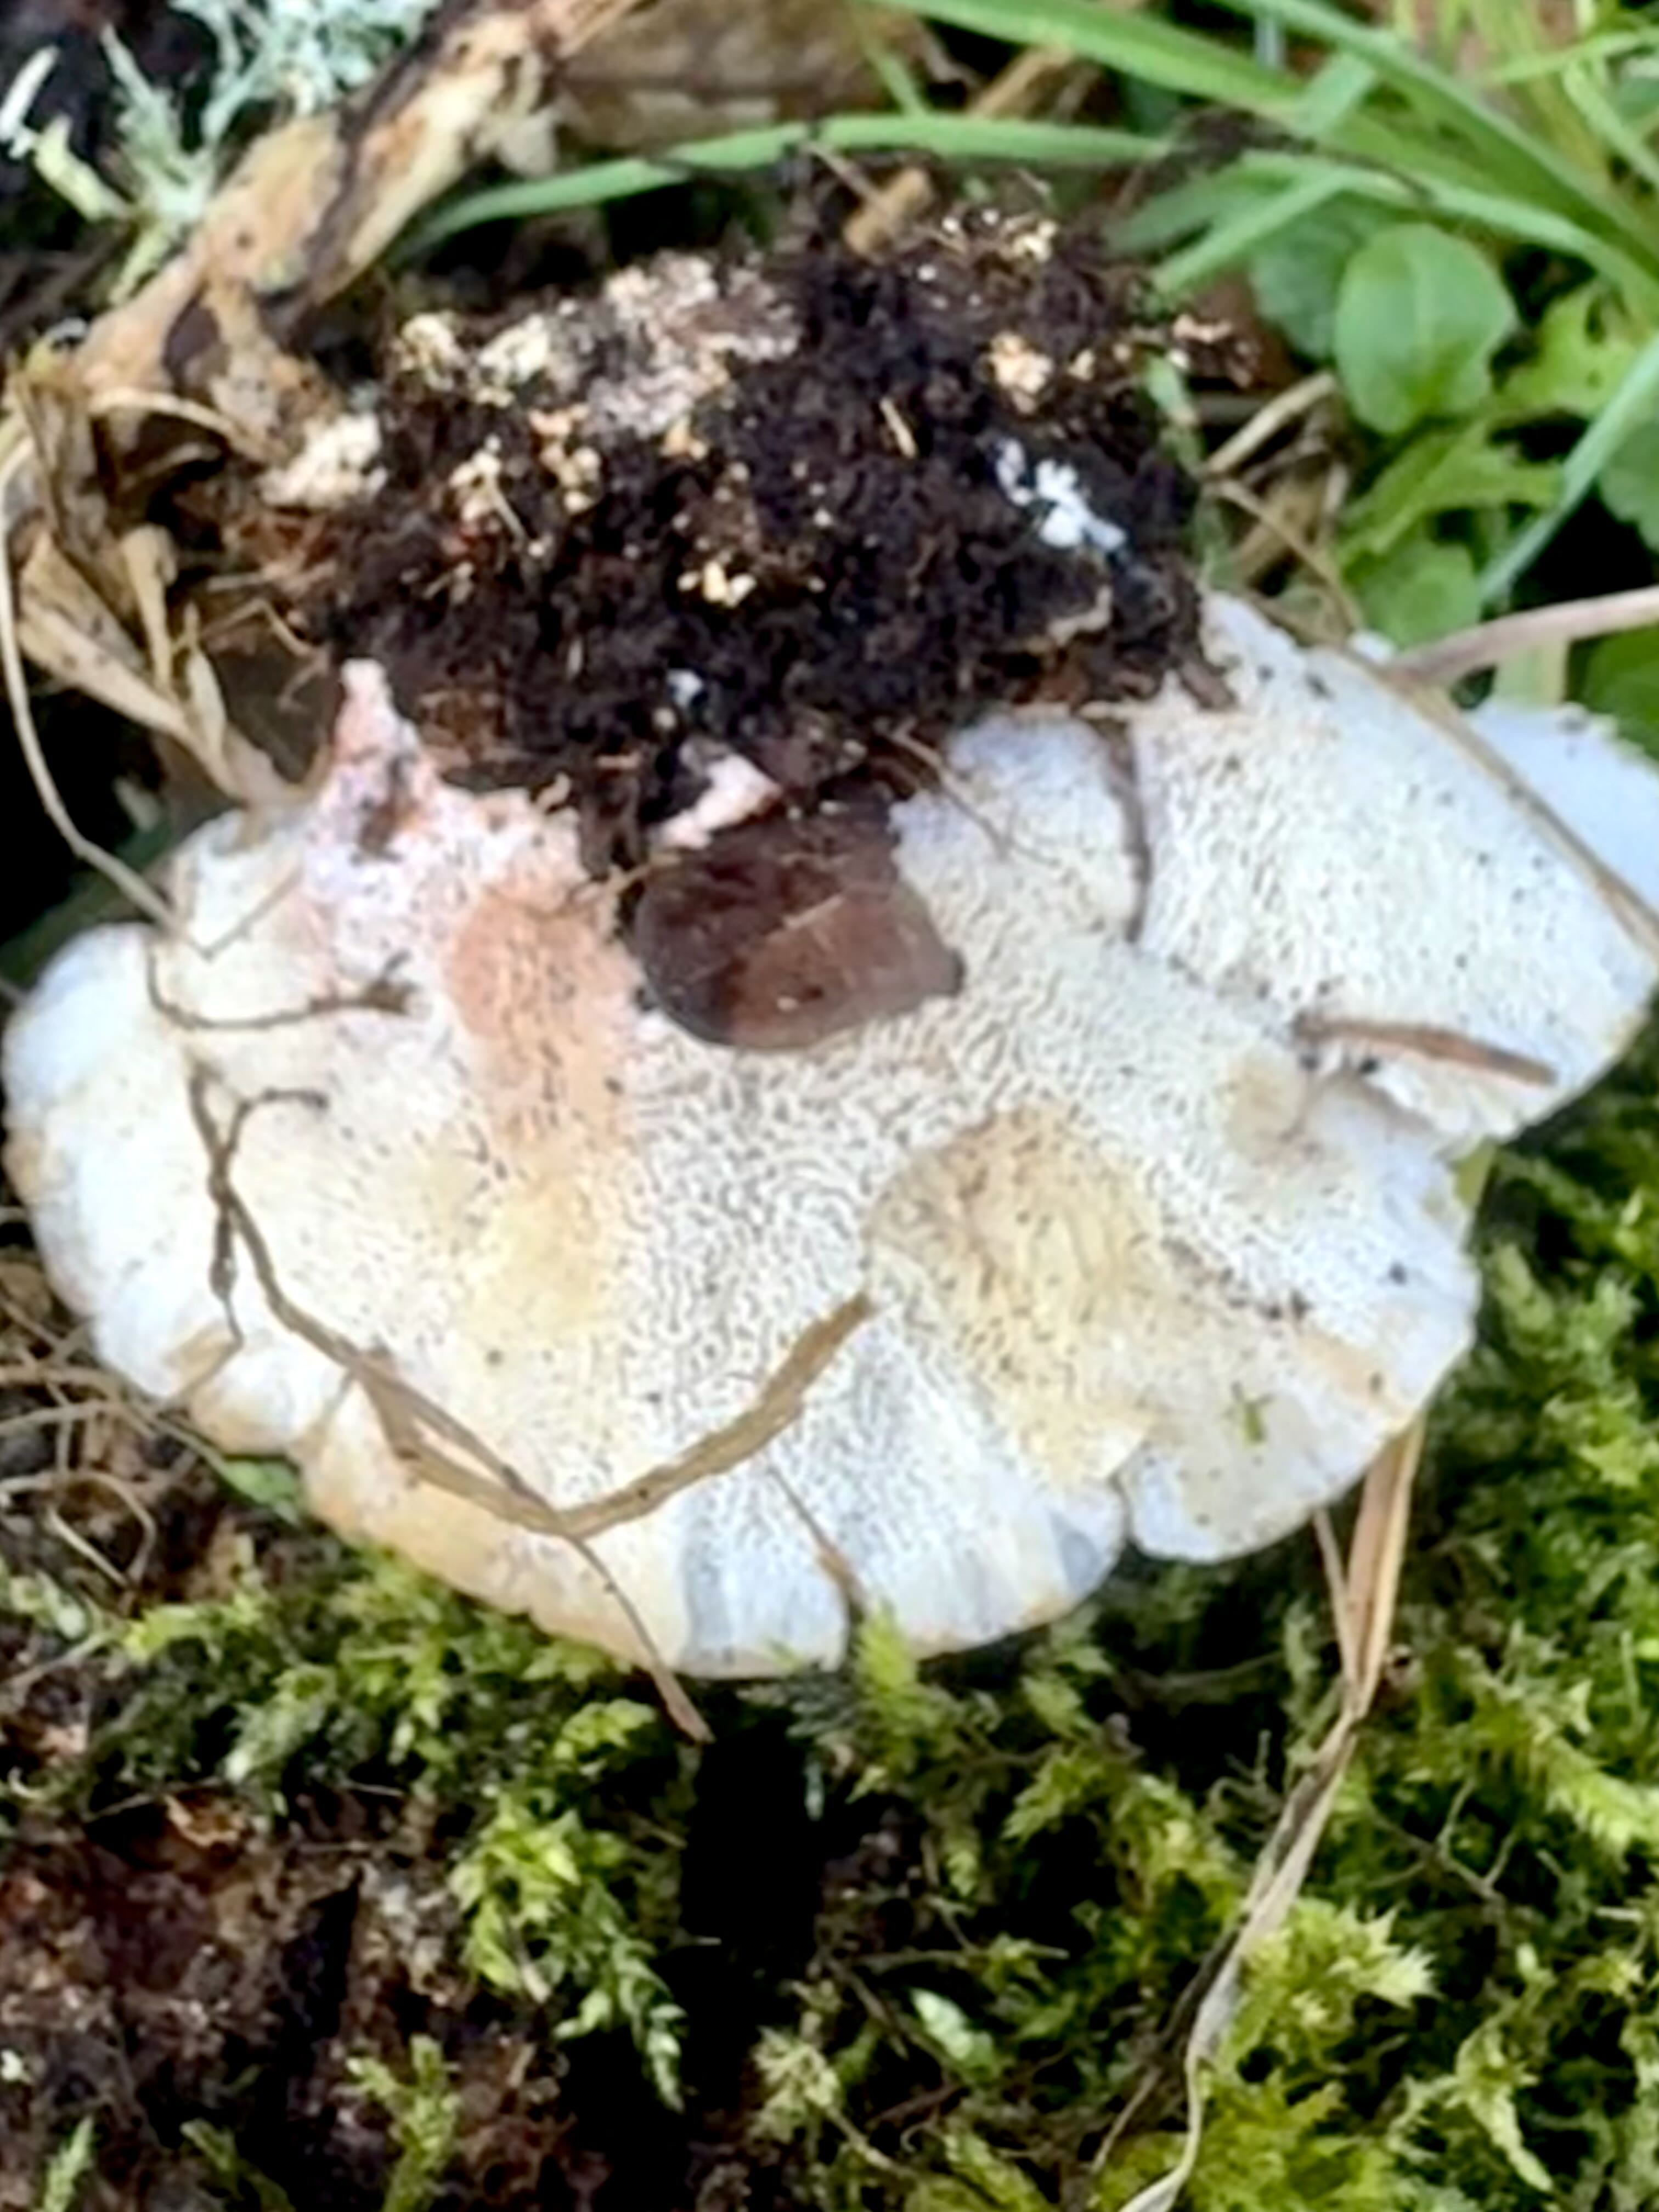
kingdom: Fungi
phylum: Basidiomycota
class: Agaricomycetes
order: Polyporales
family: Podoscyphaceae
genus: Abortiporus
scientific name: Abortiporus biennis
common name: rødmende pjalteporesvamp
